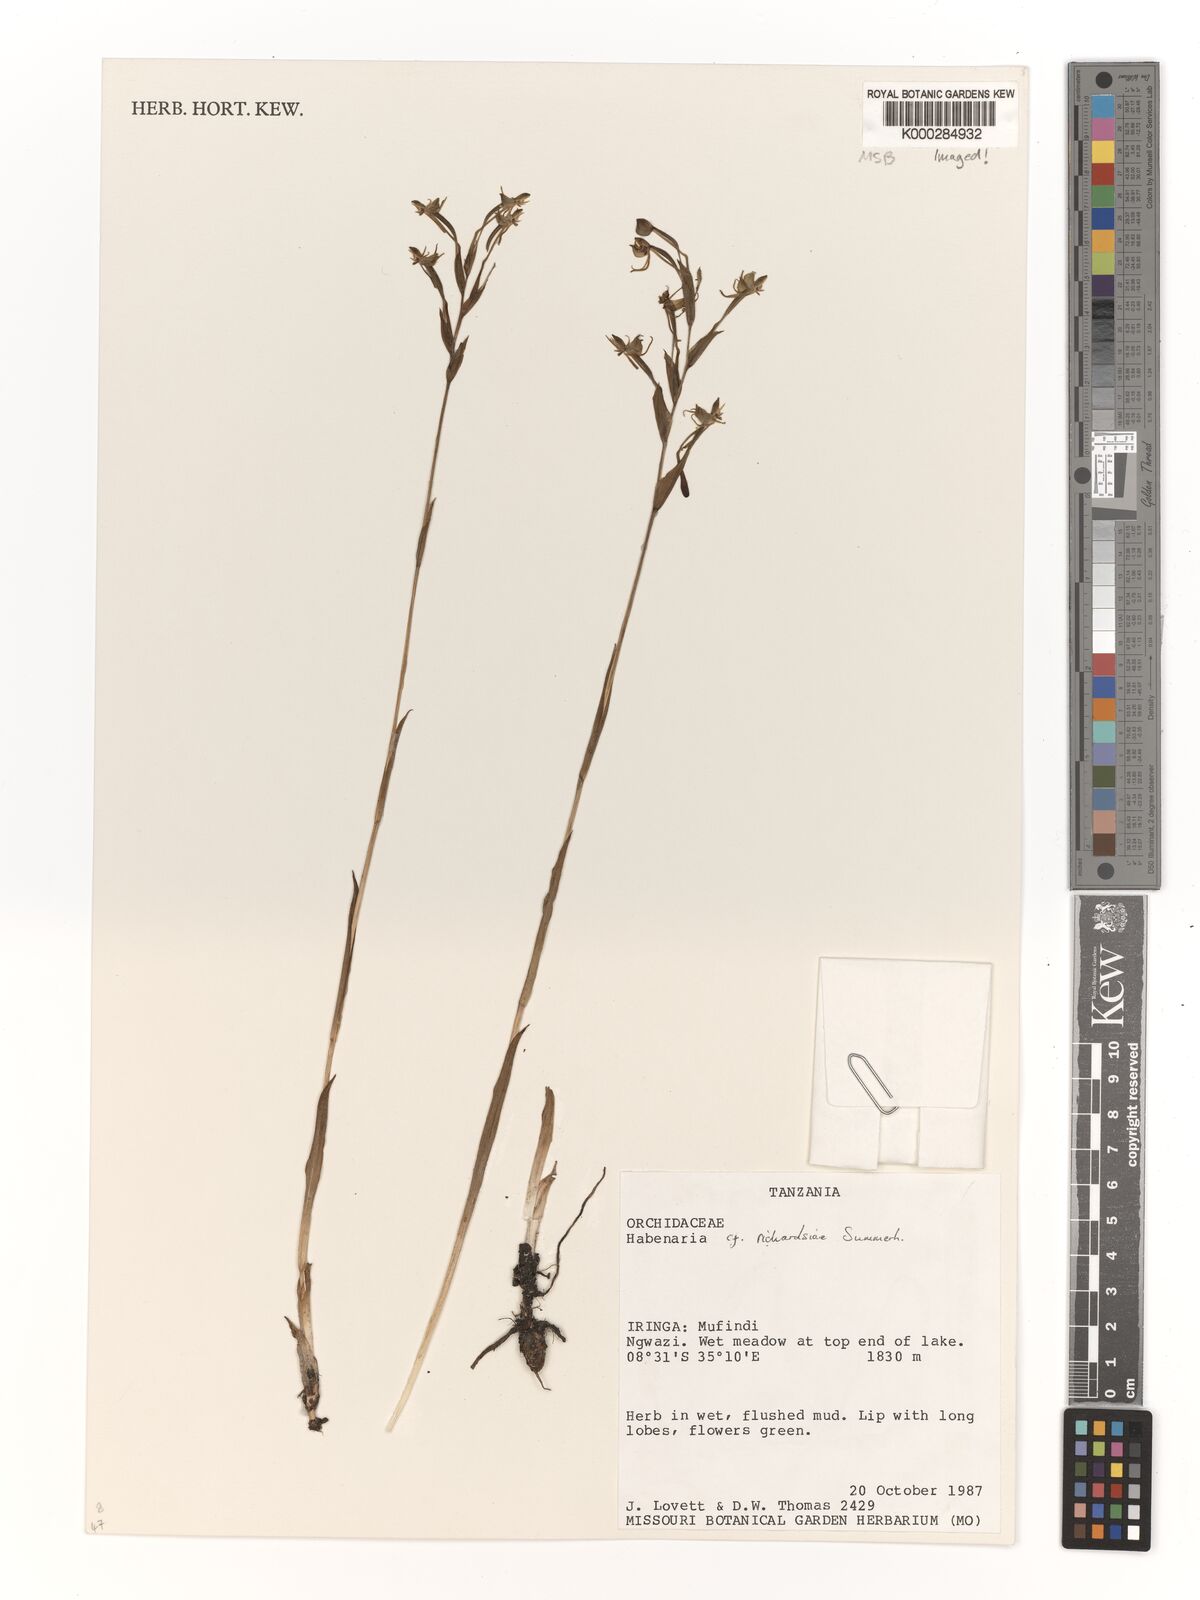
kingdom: Plantae
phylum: Tracheophyta
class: Liliopsida
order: Asparagales
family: Orchidaceae
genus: Habenaria
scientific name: Habenaria richardsiae
